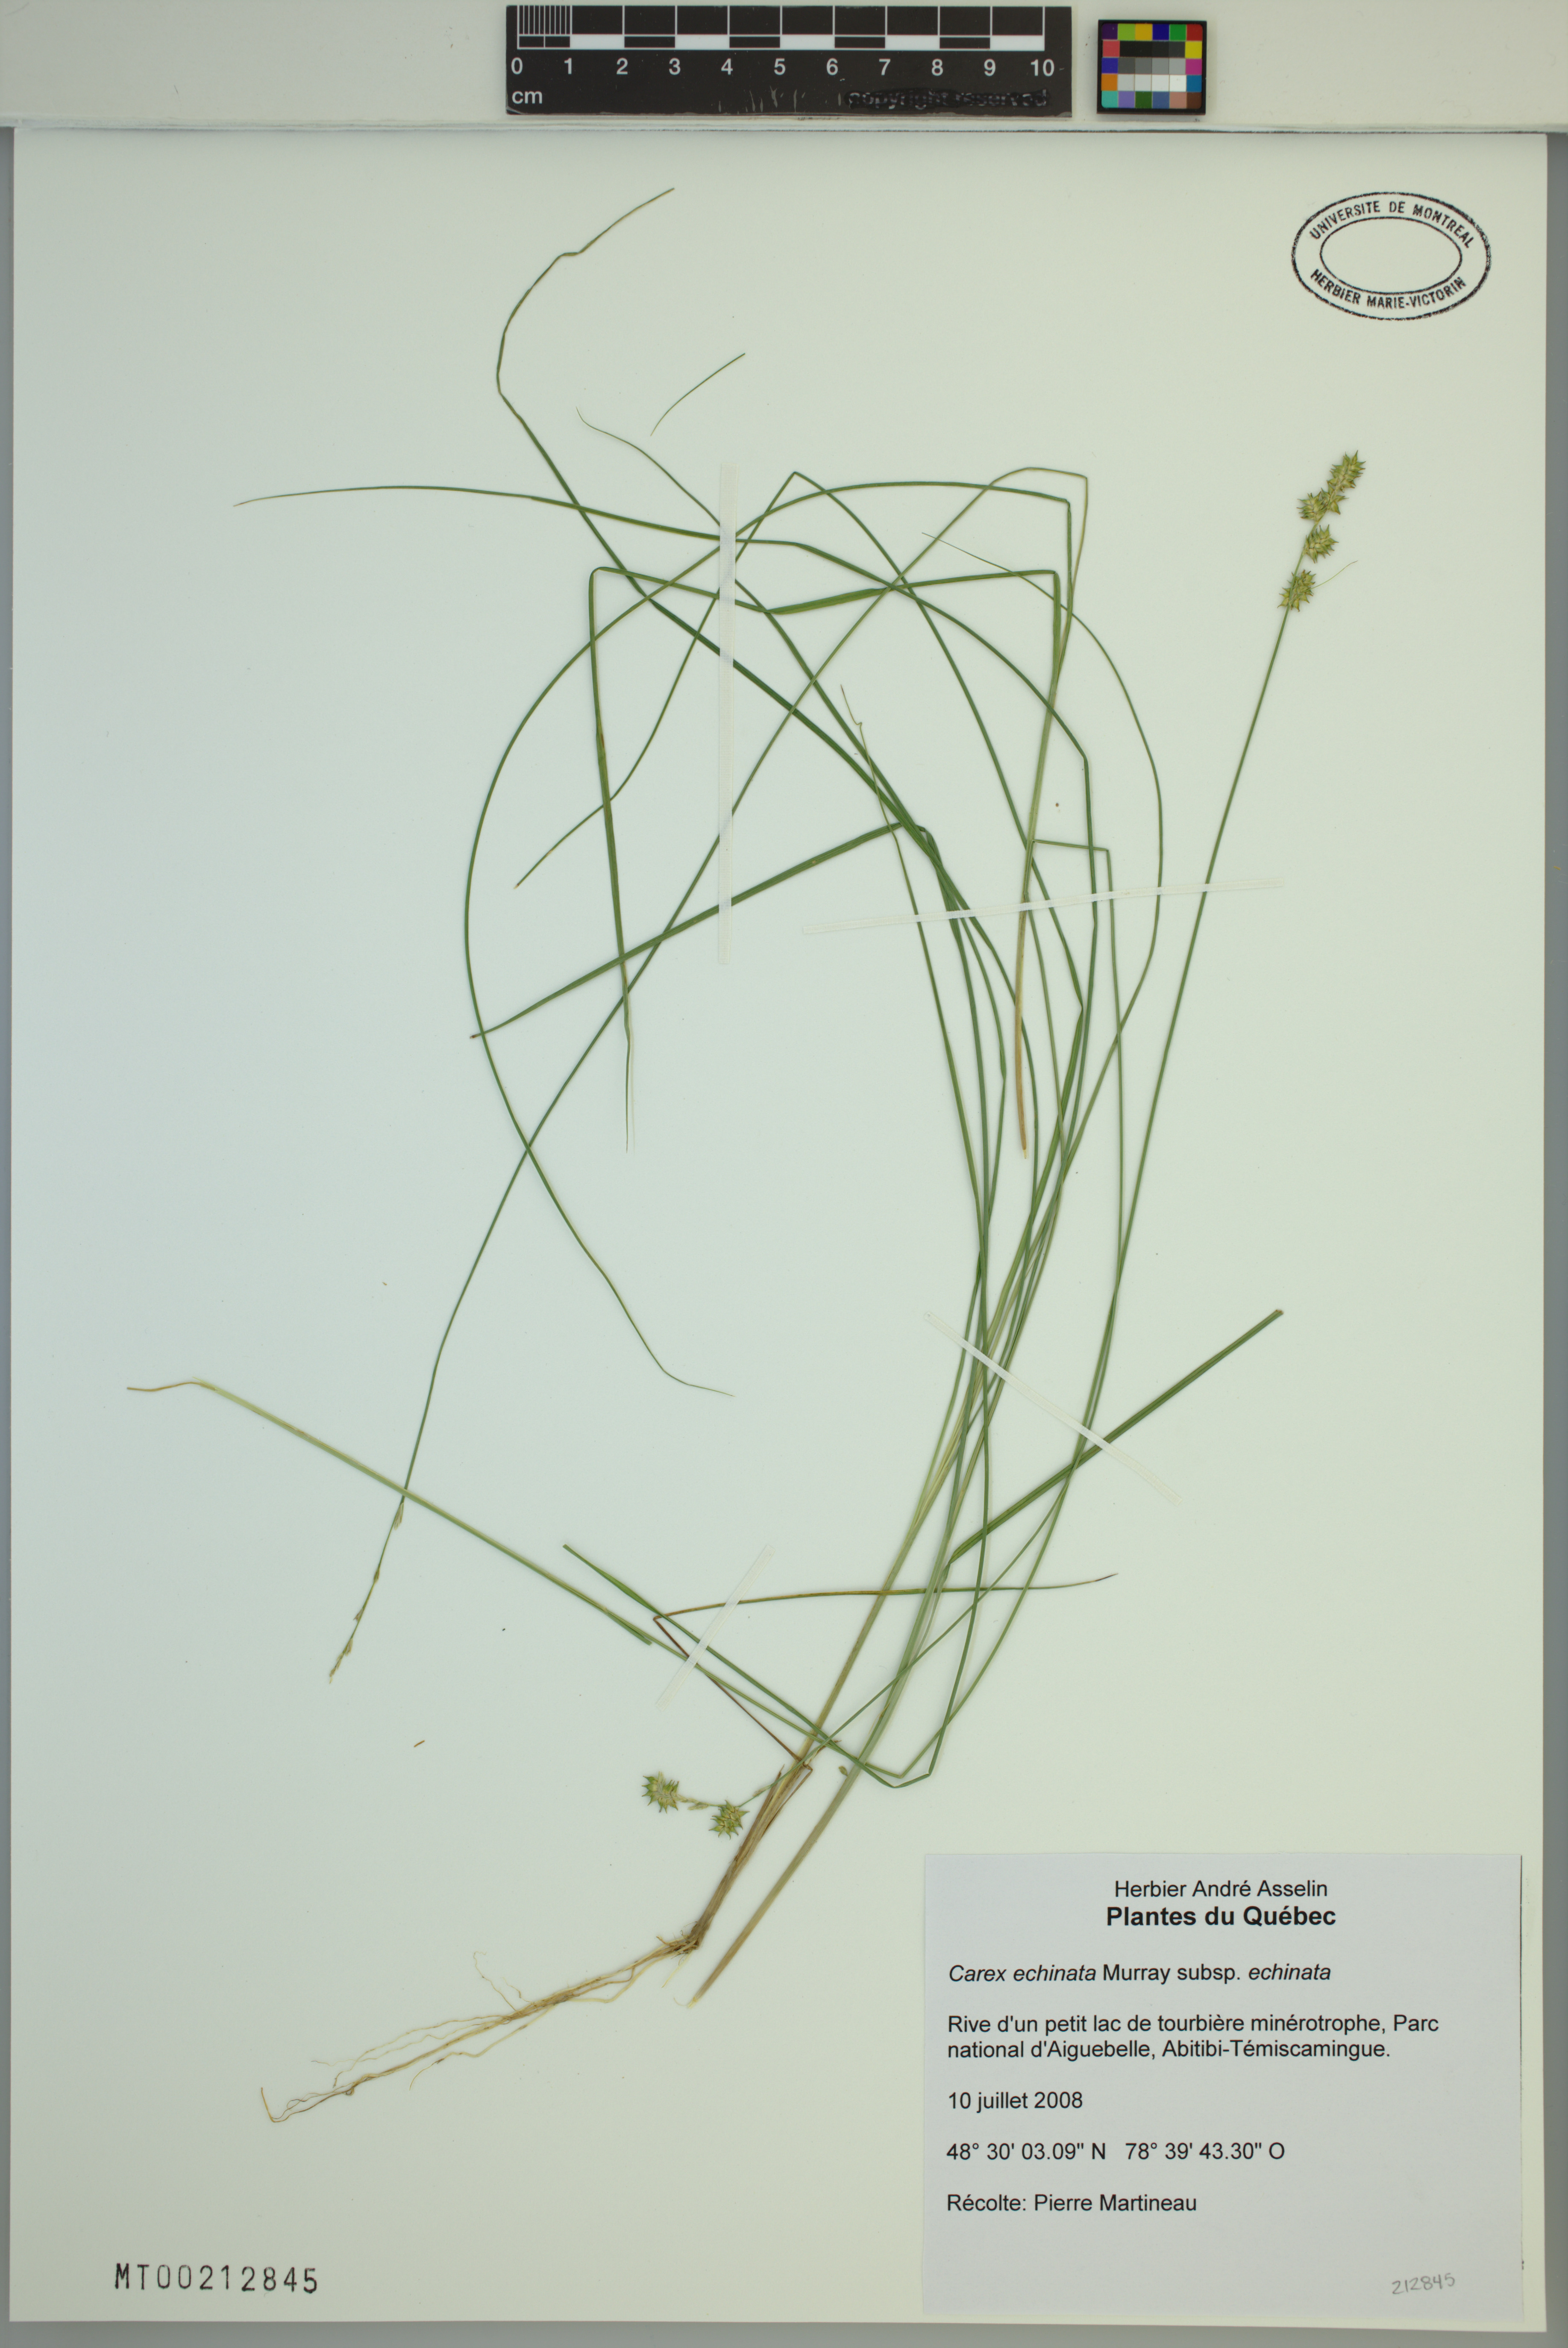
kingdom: Plantae
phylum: Tracheophyta
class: Liliopsida
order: Poales
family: Cyperaceae
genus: Carex
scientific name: Carex echinata
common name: Star sedge
